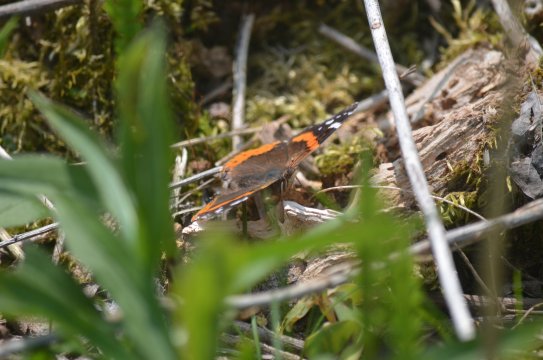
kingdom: Animalia
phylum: Arthropoda
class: Insecta
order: Lepidoptera
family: Nymphalidae
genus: Vanessa
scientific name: Vanessa atalanta
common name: Red Admiral
